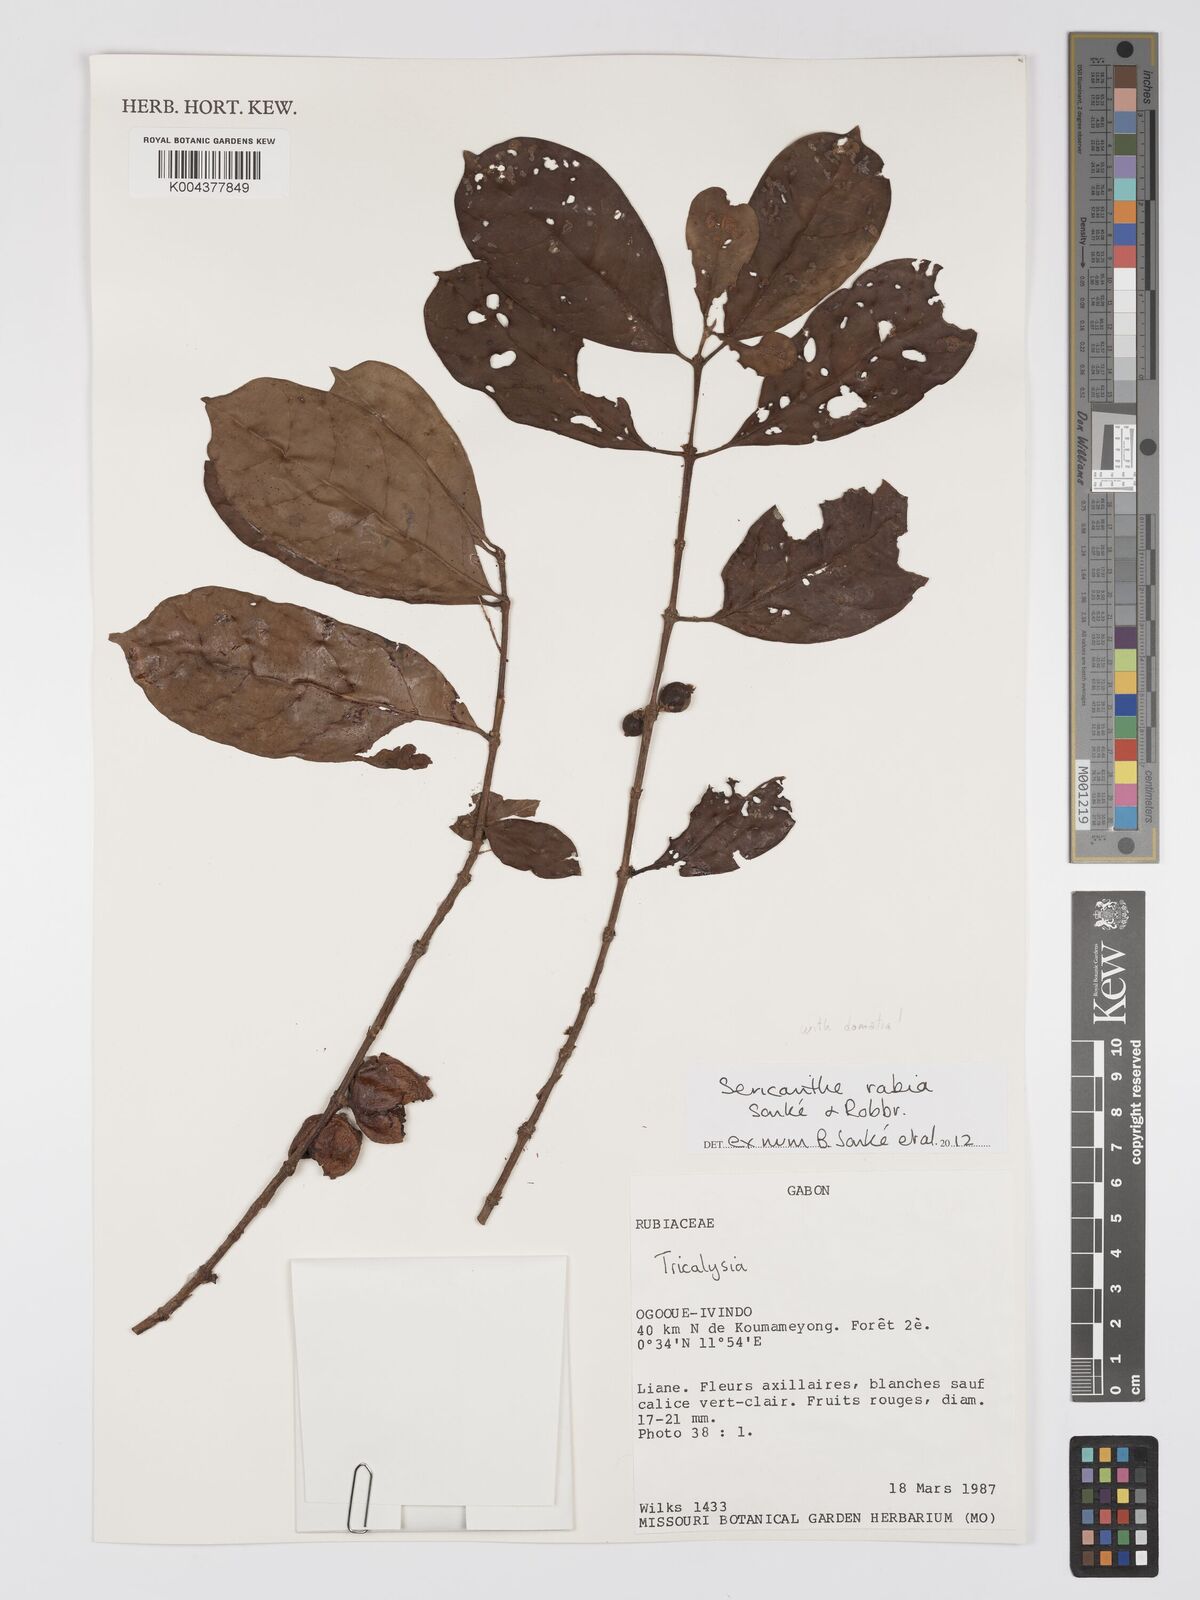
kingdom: Plantae
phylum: Tracheophyta
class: Magnoliopsida
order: Gentianales
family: Rubiaceae
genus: Sericanthe
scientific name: Sericanthe rabia
